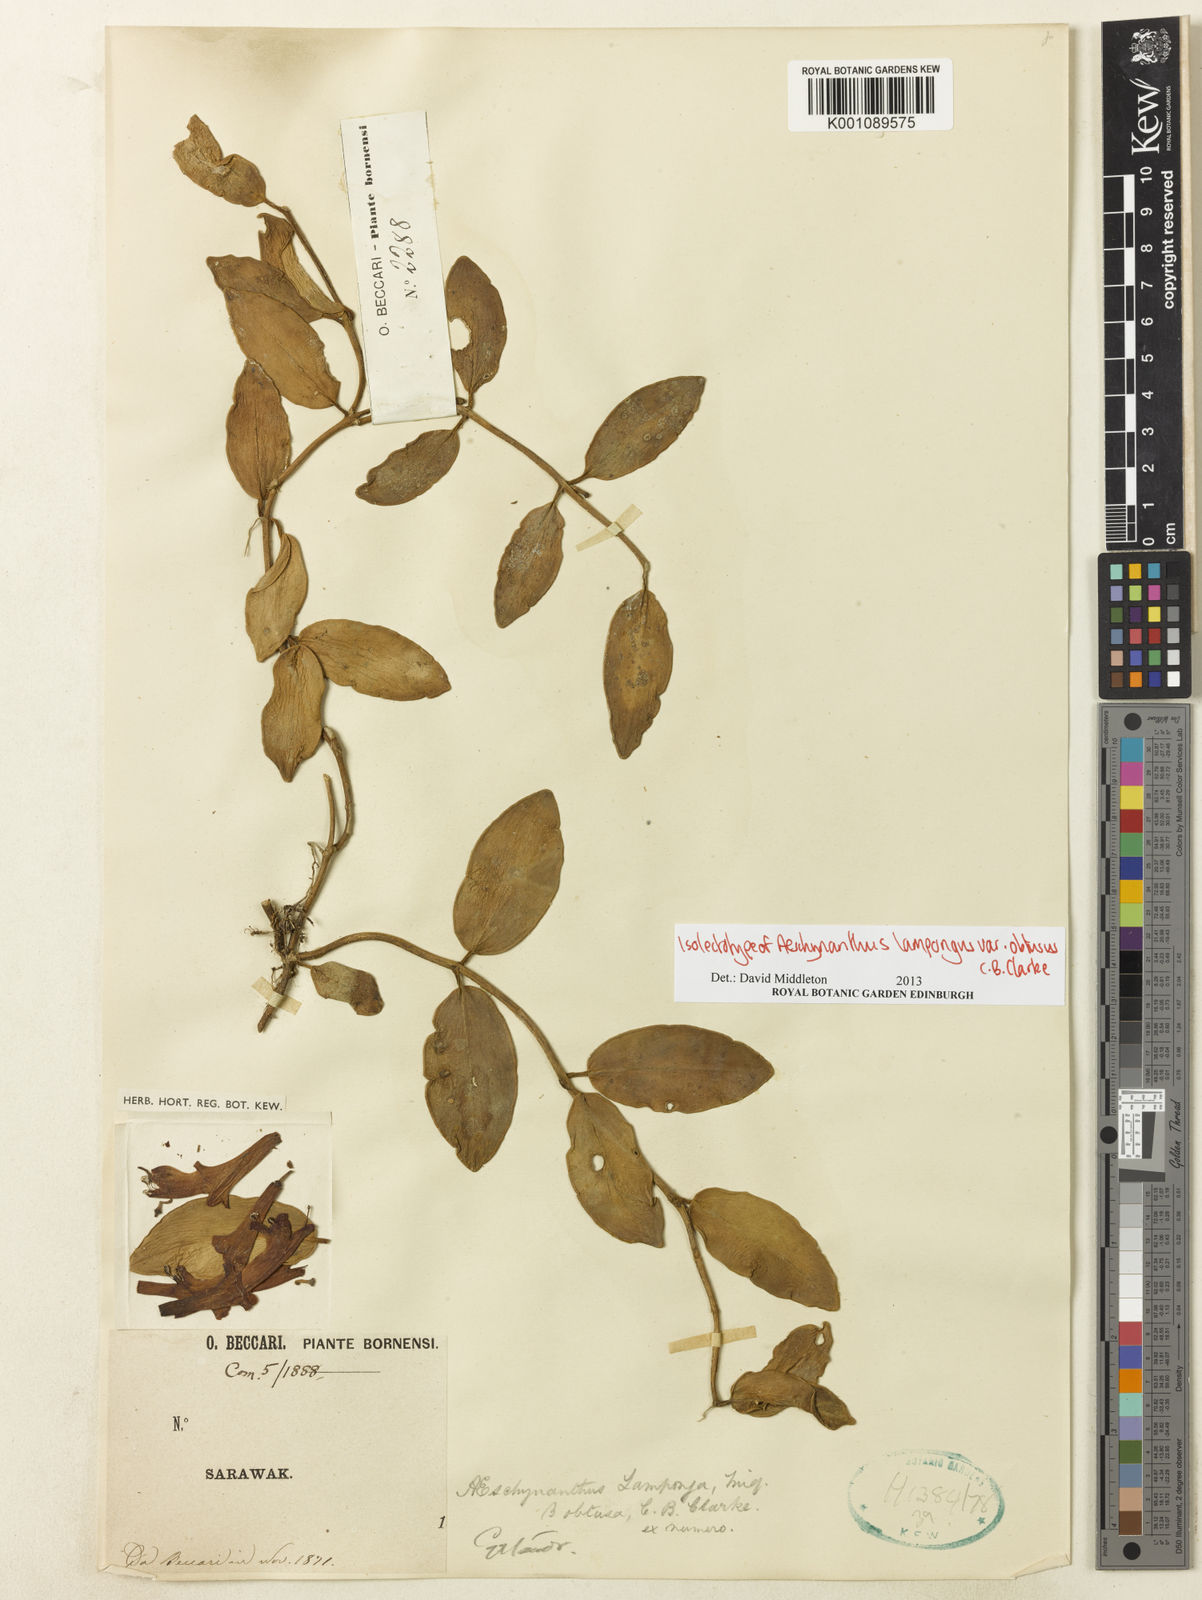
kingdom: Plantae
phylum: Tracheophyta
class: Magnoliopsida
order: Lamiales
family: Gesneriaceae
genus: Aeschynanthus
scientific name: Aeschynanthus pulcher
